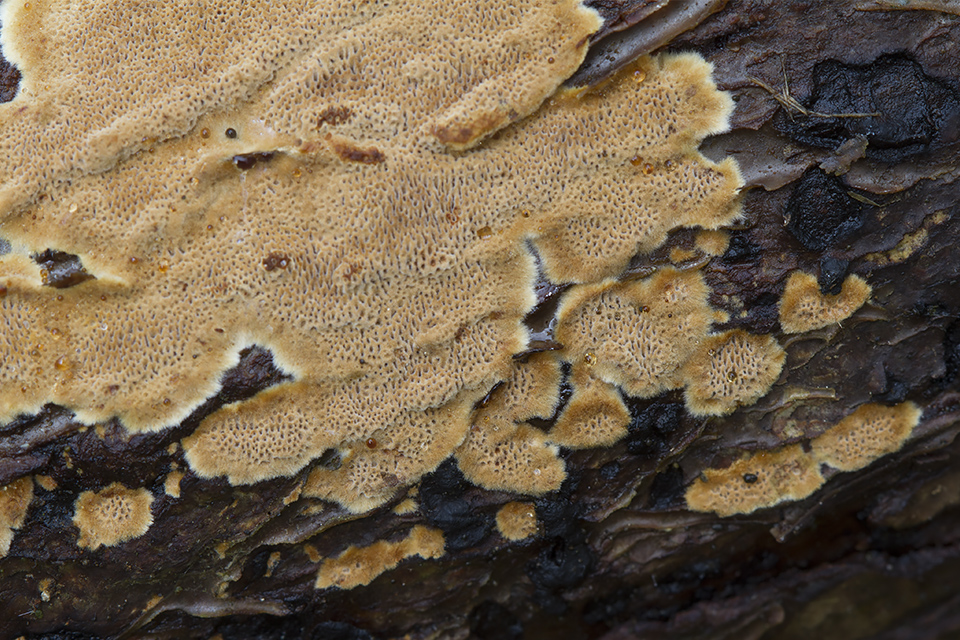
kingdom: Fungi
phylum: Basidiomycota
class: Agaricomycetes
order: Hymenochaetales
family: Hymenochaetaceae
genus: Fuscoporia
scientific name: Fuscoporia ferrea
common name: skorpe-ildporesvamp
